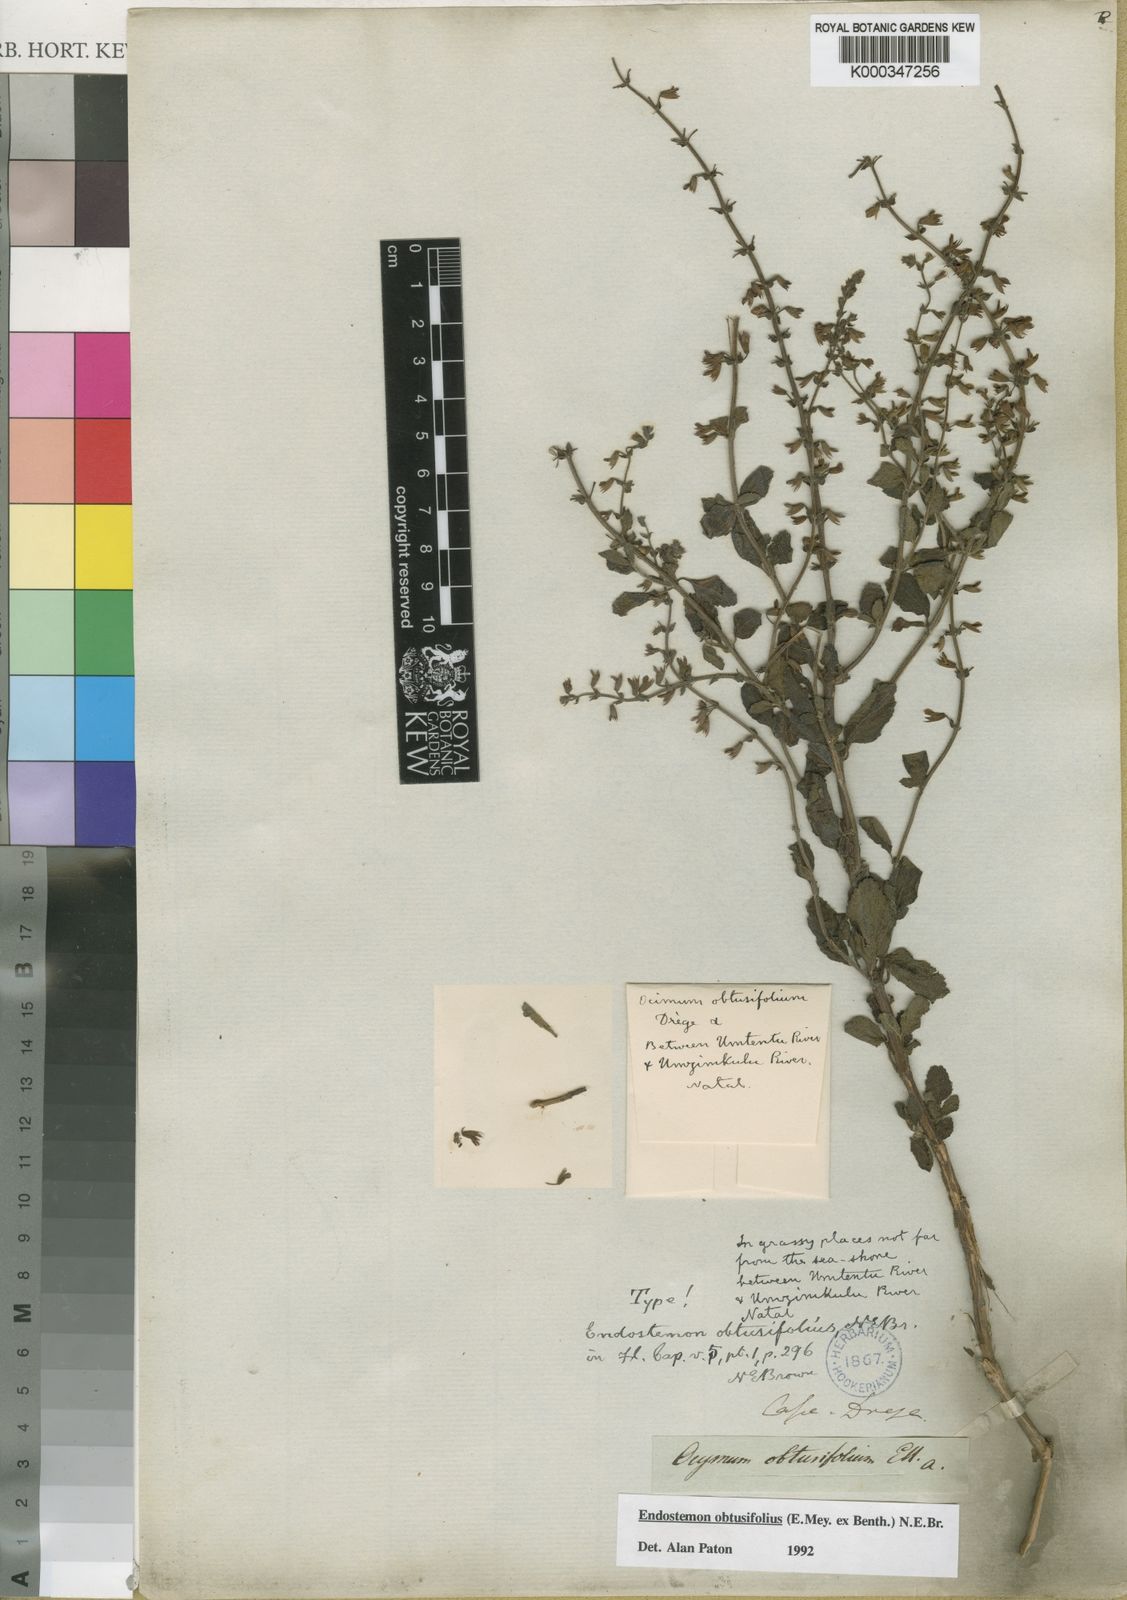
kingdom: Plantae
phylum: Tracheophyta
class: Magnoliopsida
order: Lamiales
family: Lamiaceae
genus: Endostemon
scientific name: Endostemon obtusifolius
